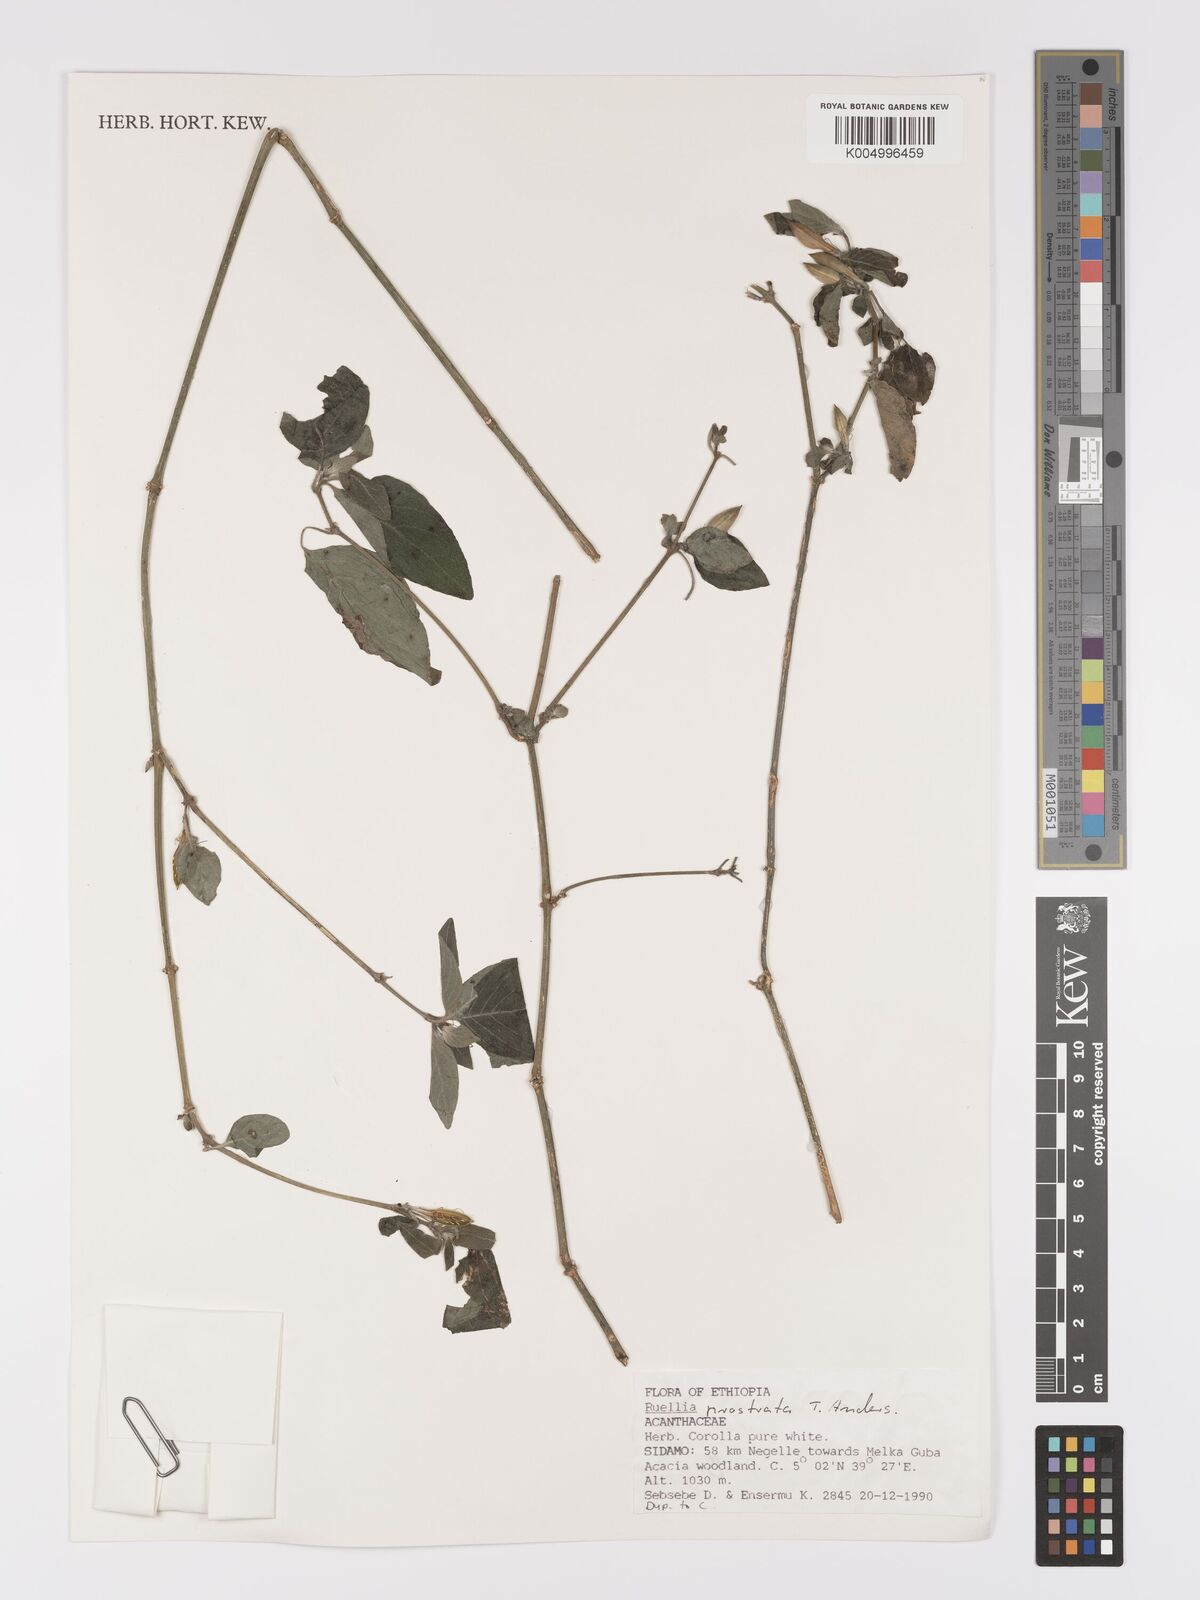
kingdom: Plantae
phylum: Tracheophyta
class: Magnoliopsida
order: Lamiales
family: Acanthaceae
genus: Ruellia
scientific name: Ruellia
